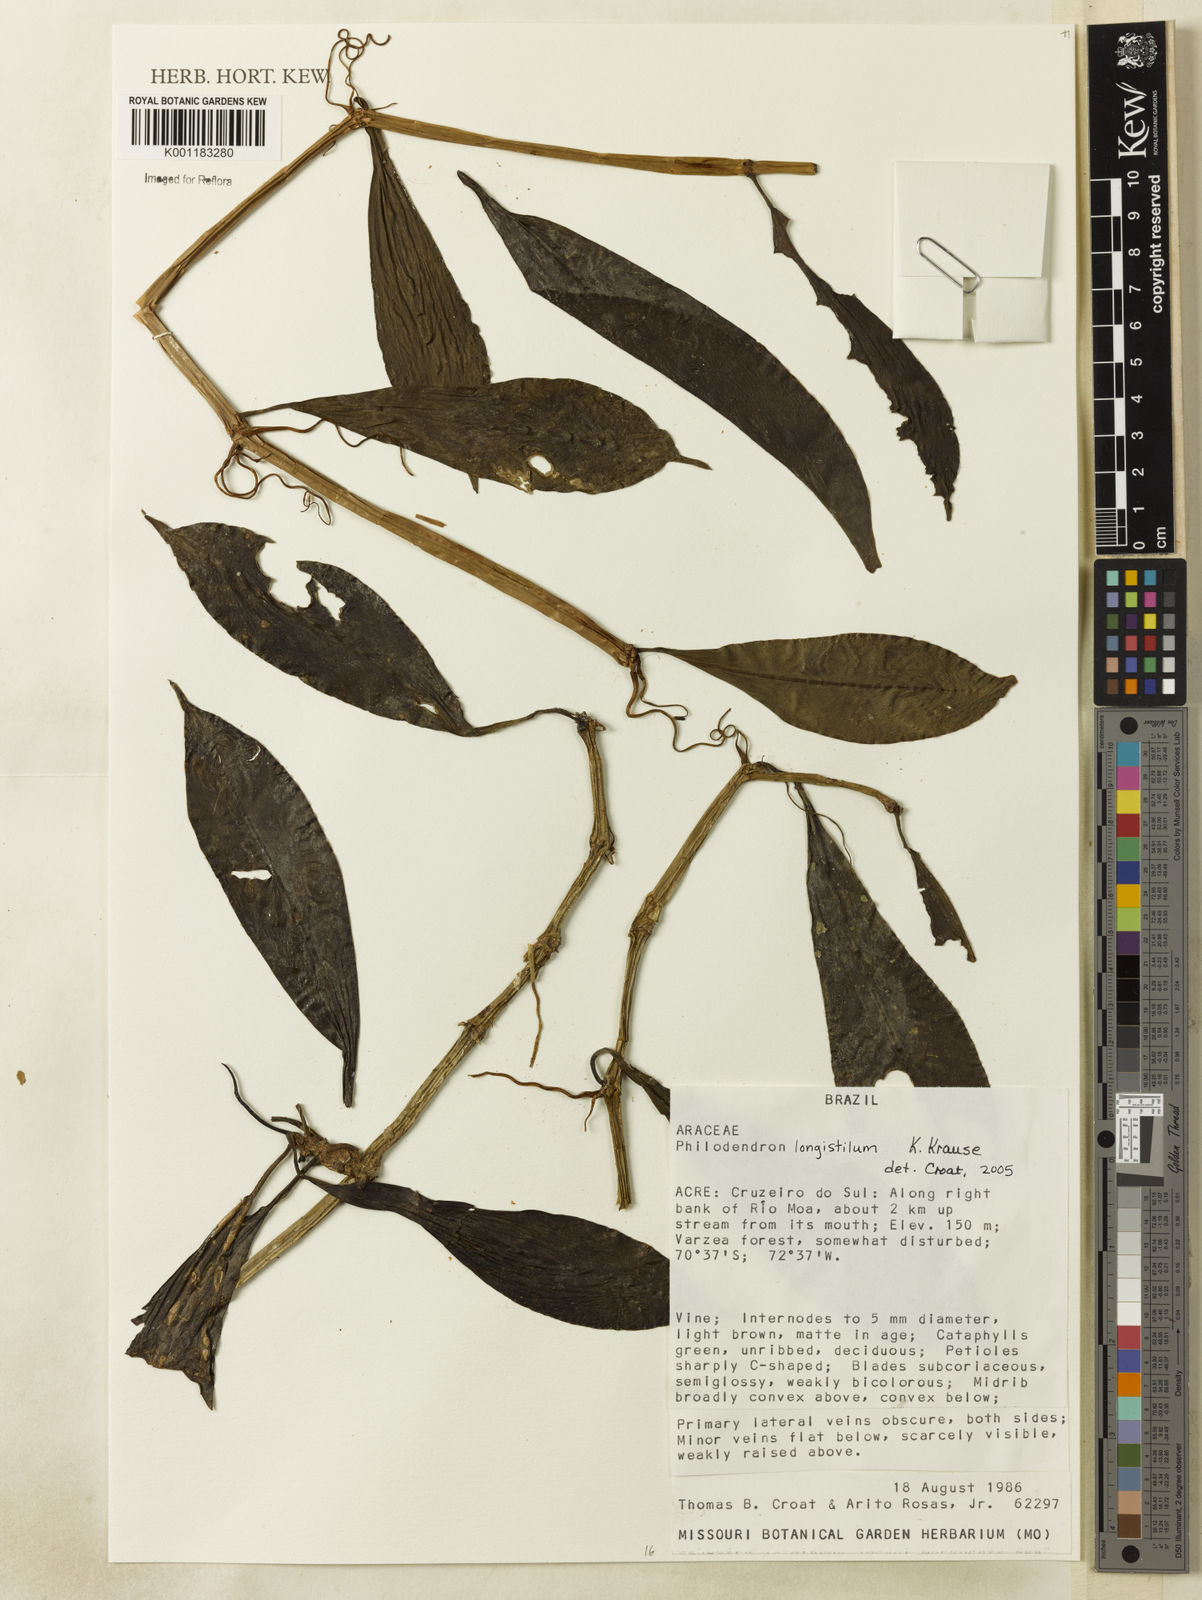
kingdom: Plantae
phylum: Tracheophyta
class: Liliopsida
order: Alismatales
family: Araceae
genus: Philodendron
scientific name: Philodendron longistilum
